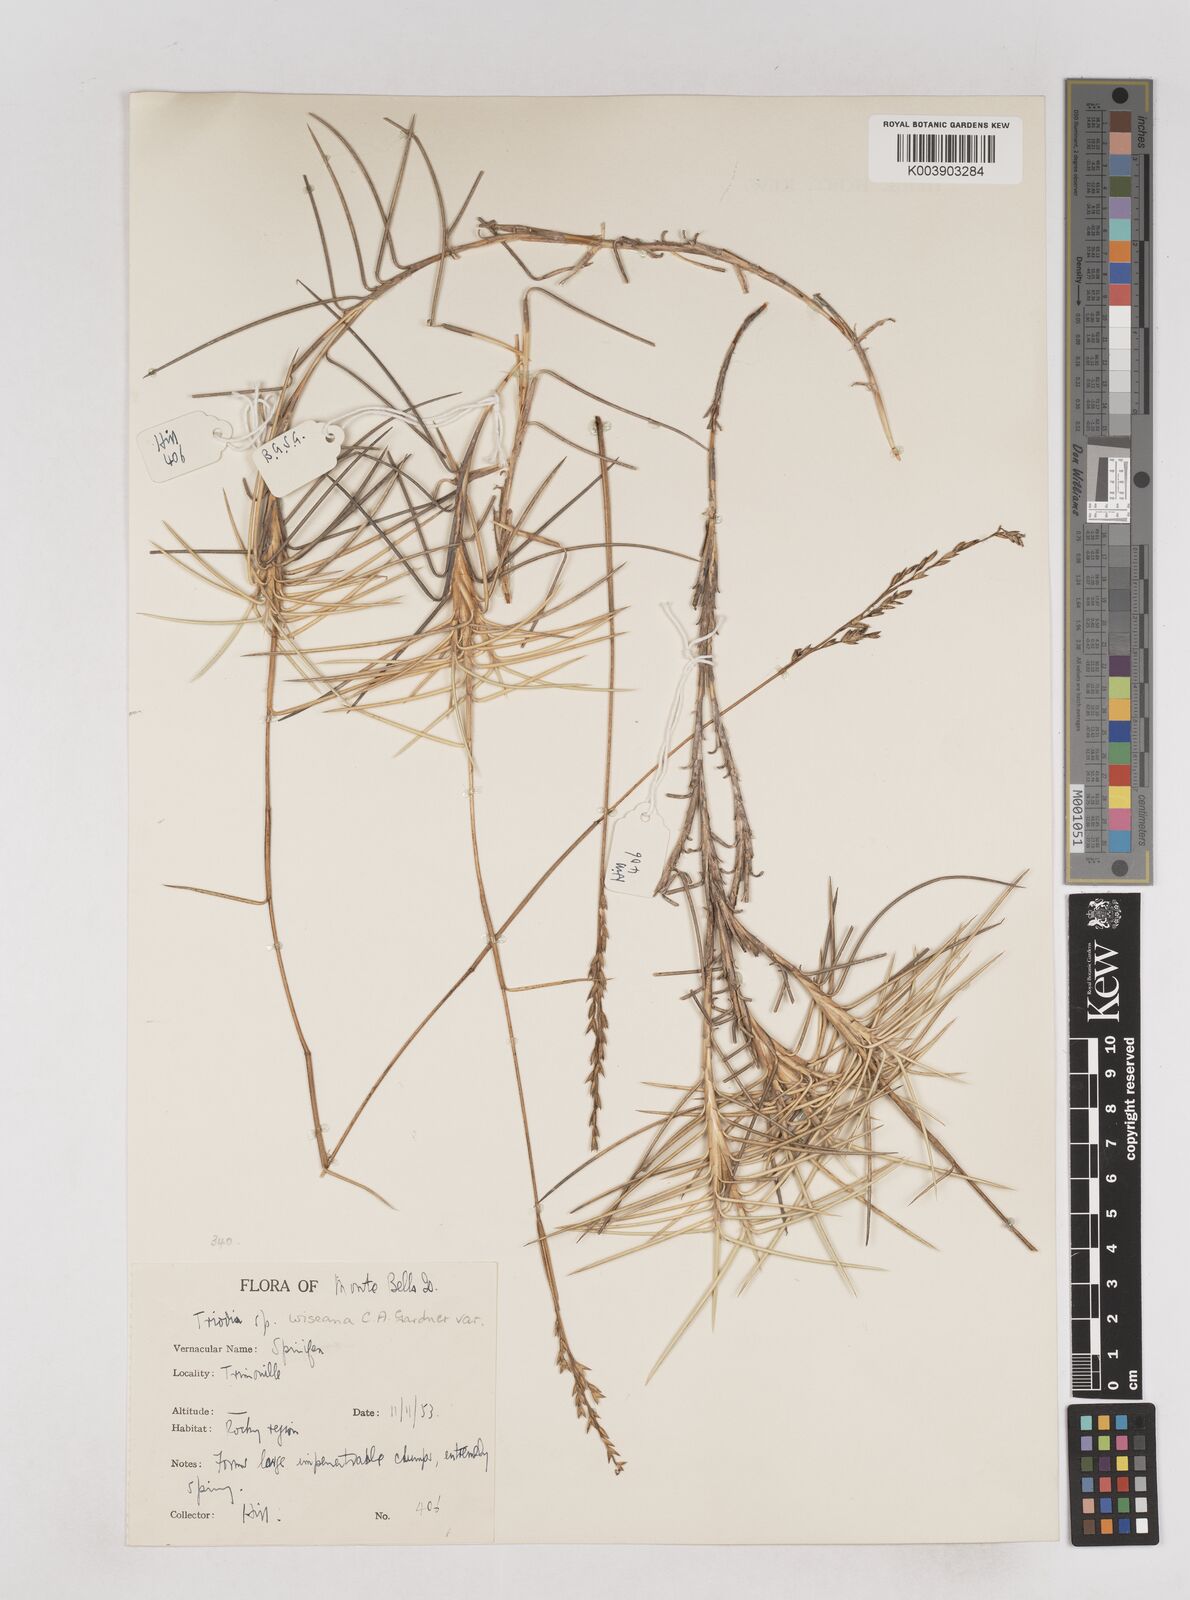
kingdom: Plantae
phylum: Tracheophyta
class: Liliopsida
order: Poales
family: Poaceae
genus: Triodia
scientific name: Triodia wiseana
